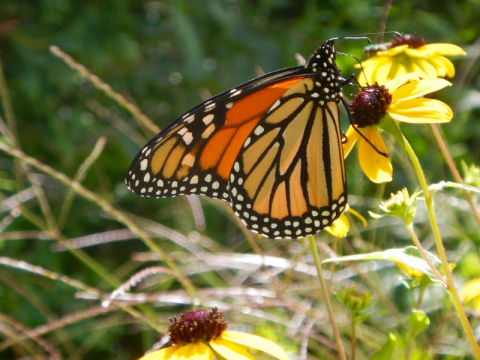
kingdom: Animalia
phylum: Arthropoda
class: Insecta
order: Lepidoptera
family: Nymphalidae
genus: Danaus
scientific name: Danaus plexippus
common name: Monarch
